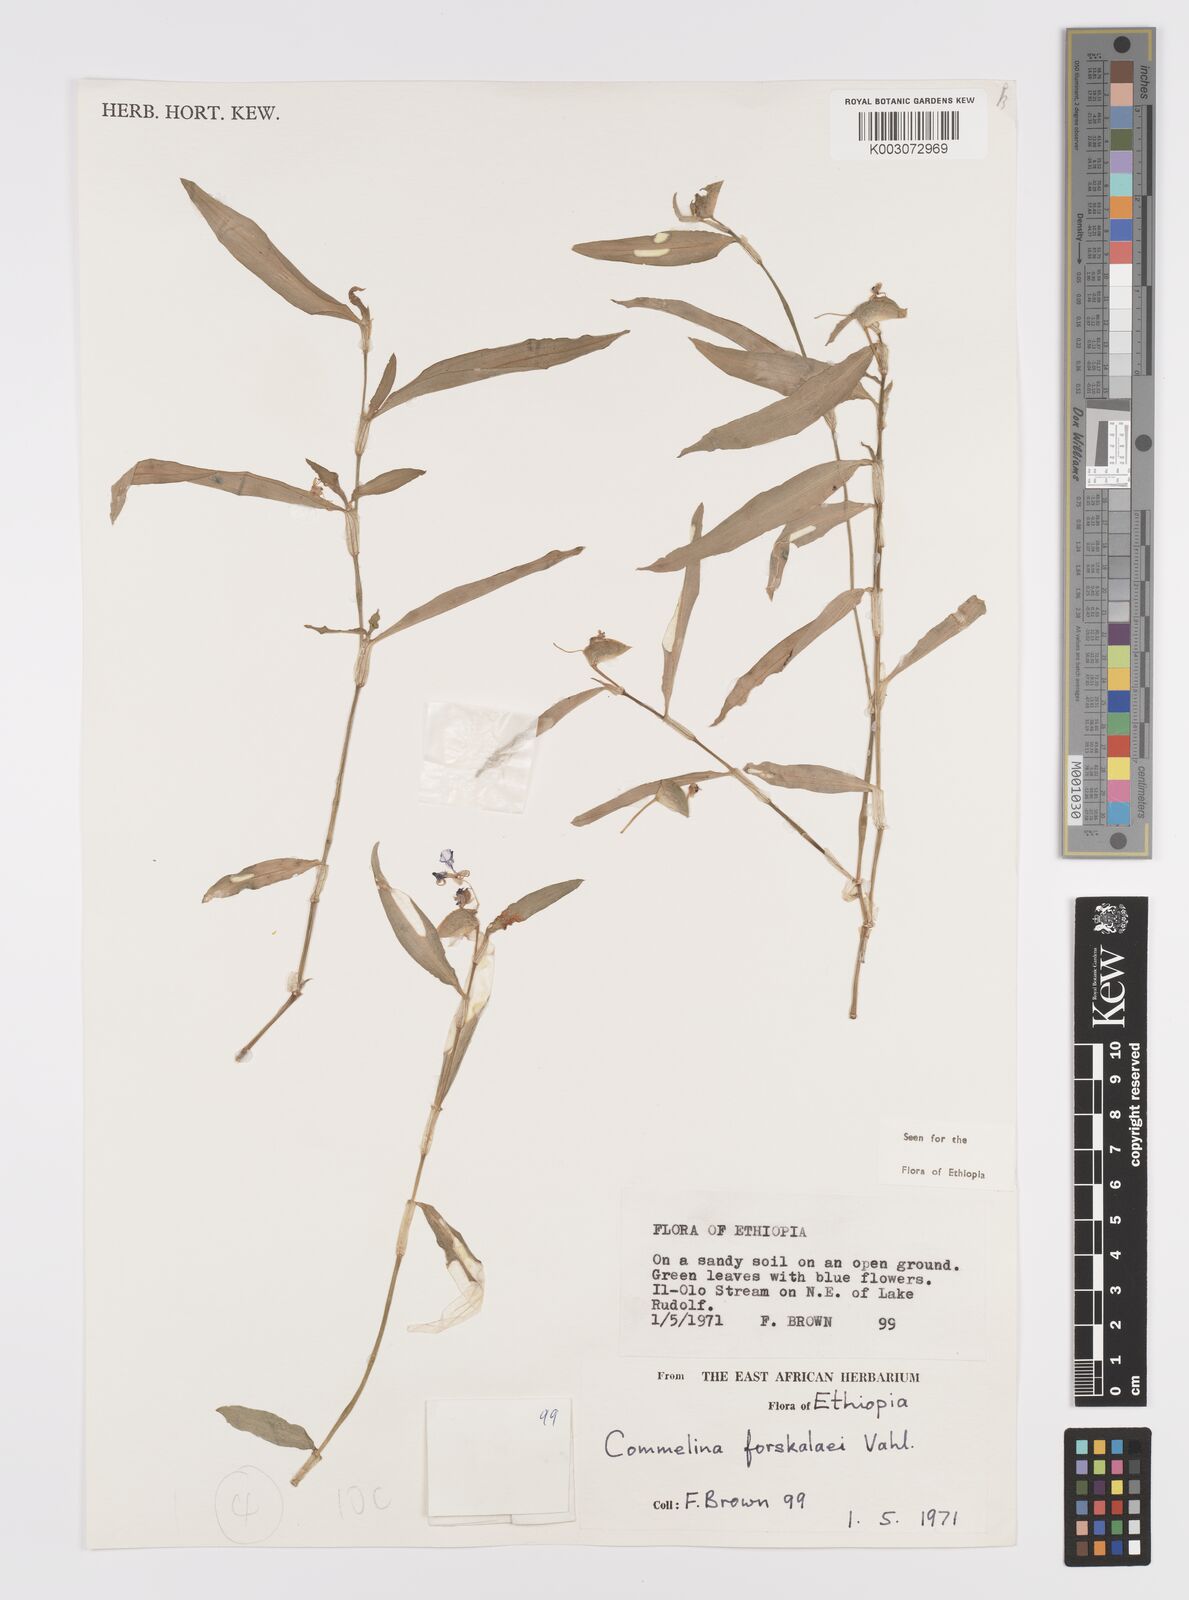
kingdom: Plantae
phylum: Tracheophyta
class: Liliopsida
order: Commelinales
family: Commelinaceae
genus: Commelina
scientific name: Commelina forskaolii
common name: Rat's ear
